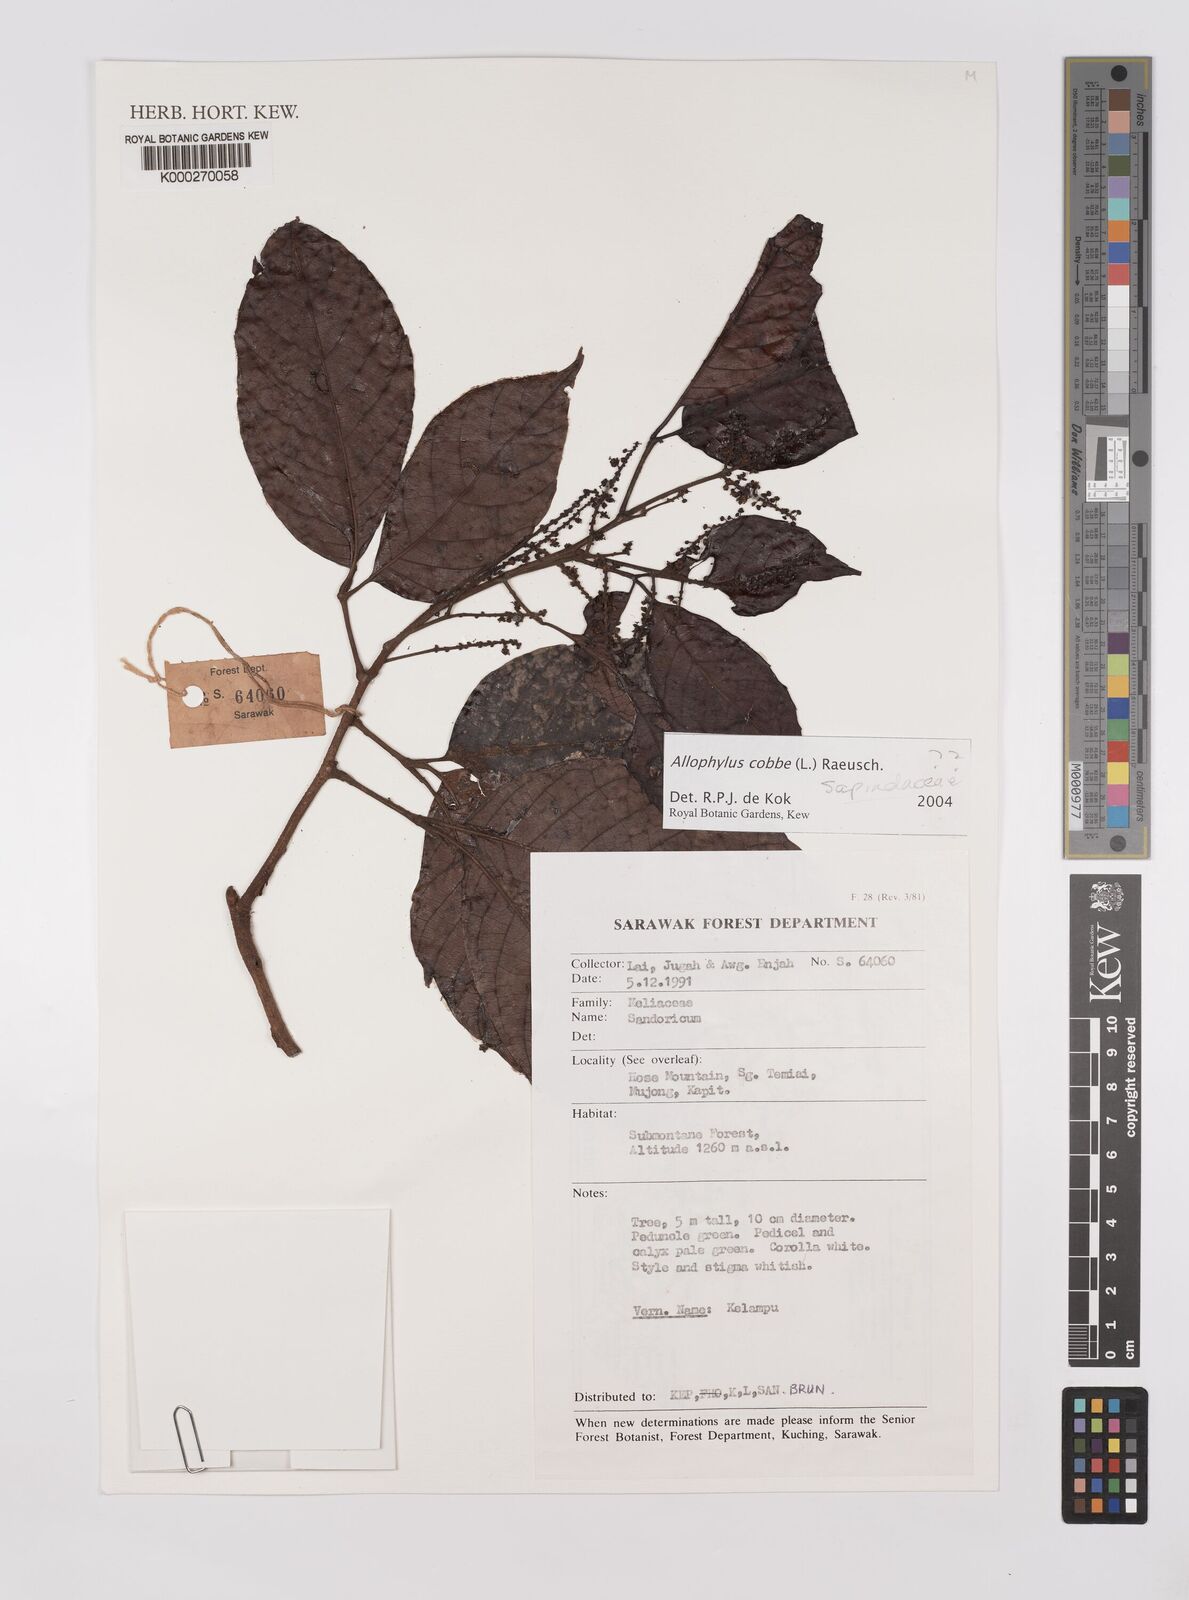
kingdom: Plantae
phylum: Tracheophyta
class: Magnoliopsida
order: Sapindales
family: Sapindaceae
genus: Allophylus
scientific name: Allophylus
